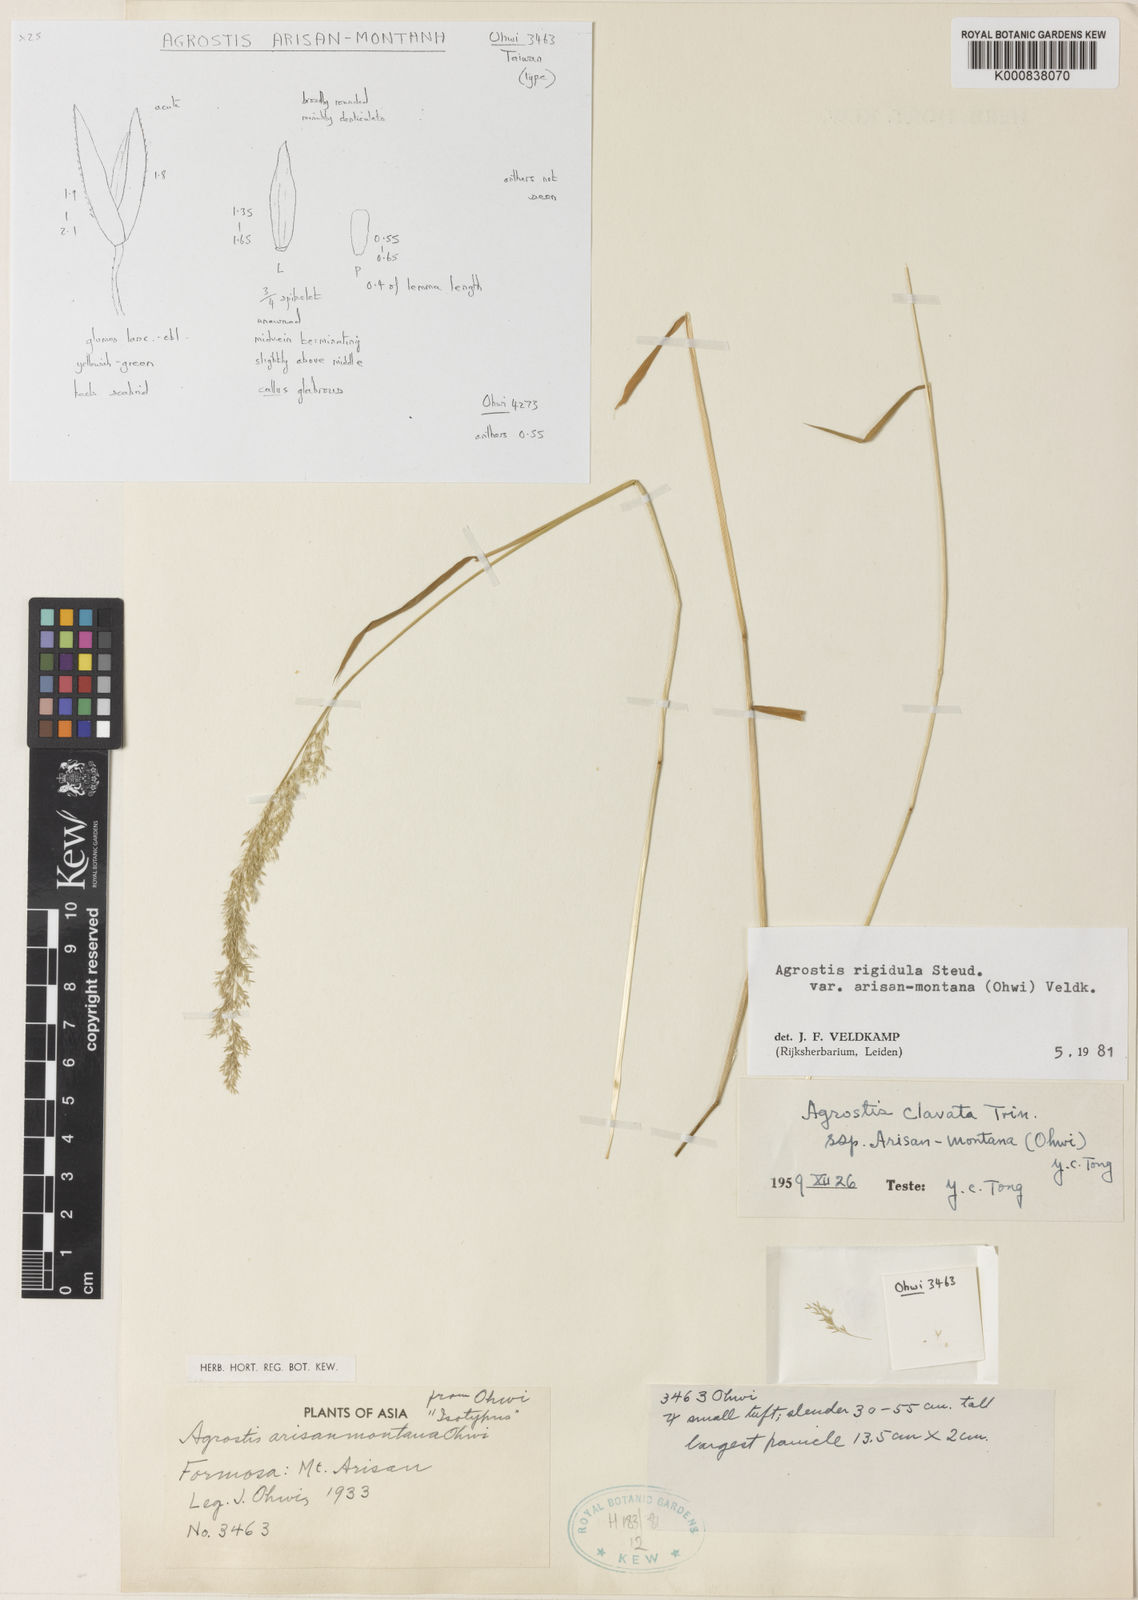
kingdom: Plantae
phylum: Tracheophyta
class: Liliopsida
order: Poales
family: Poaceae
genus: Agrostis
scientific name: Agrostis infirma
